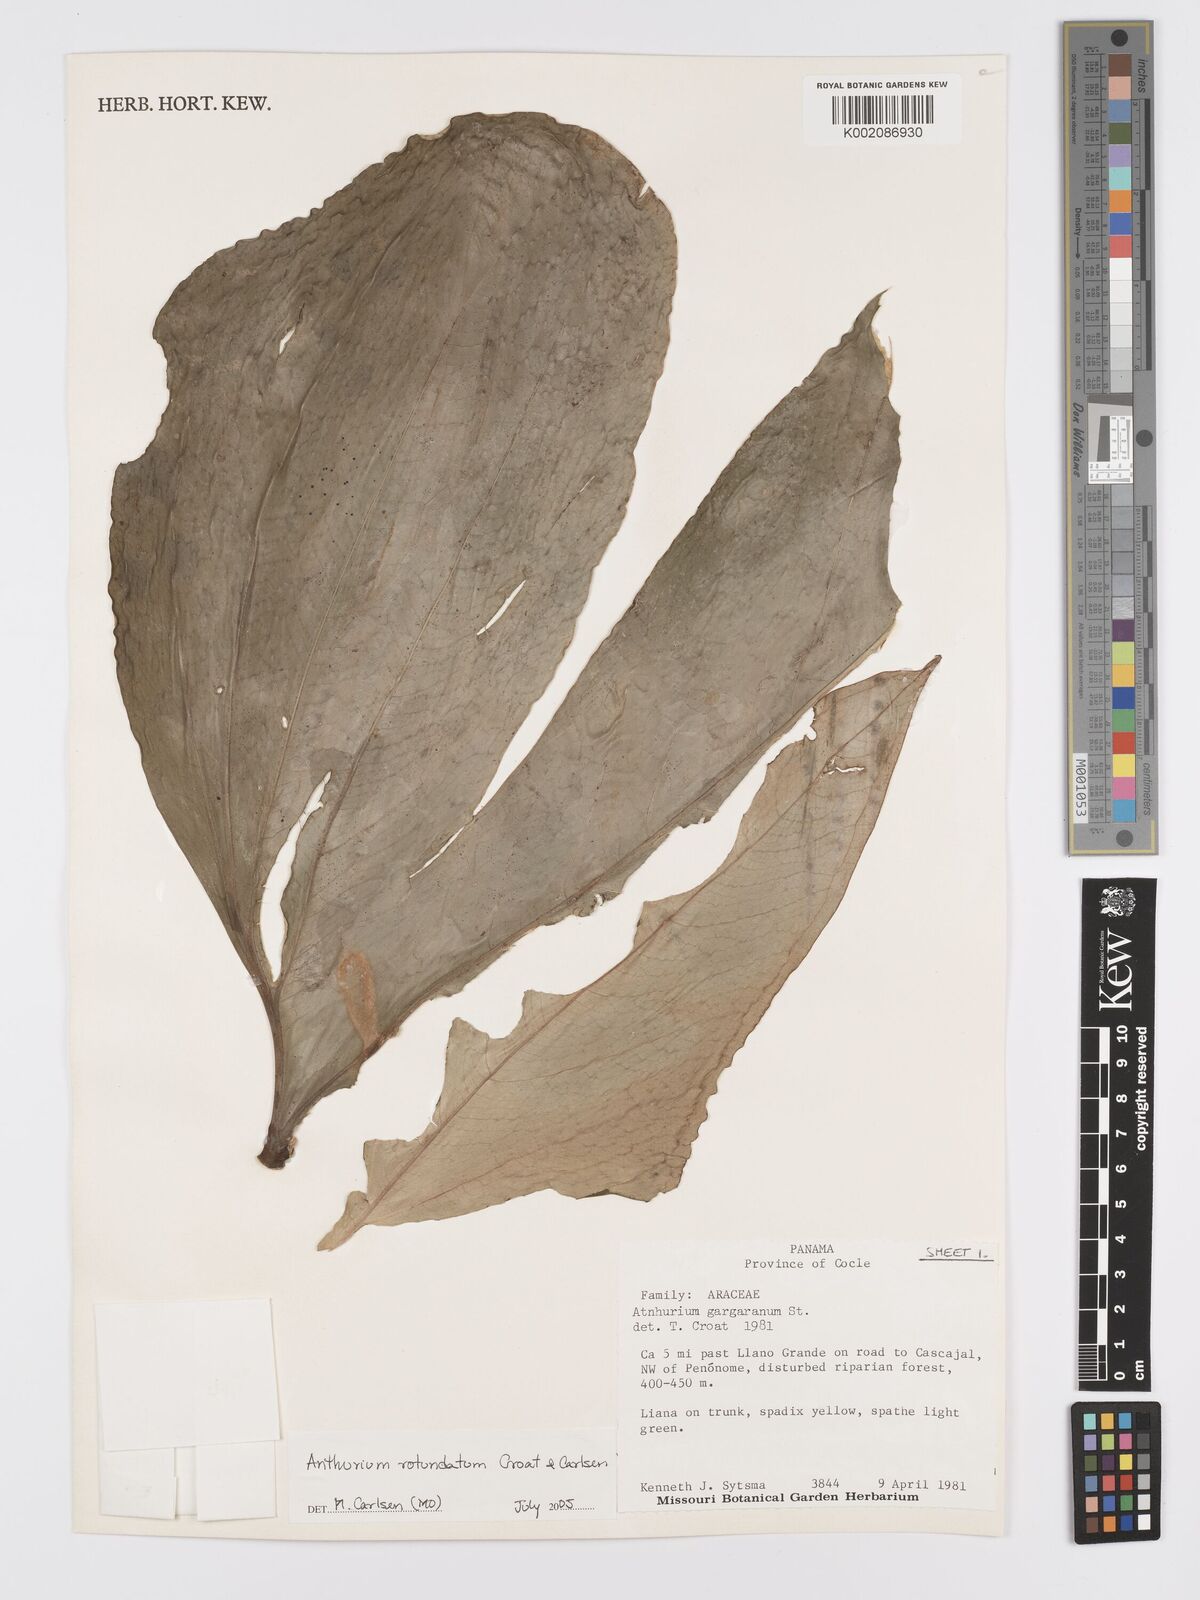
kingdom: Plantae
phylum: Tracheophyta
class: Liliopsida
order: Alismatales
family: Araceae
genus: Anthurium
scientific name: Anthurium rotundatum
